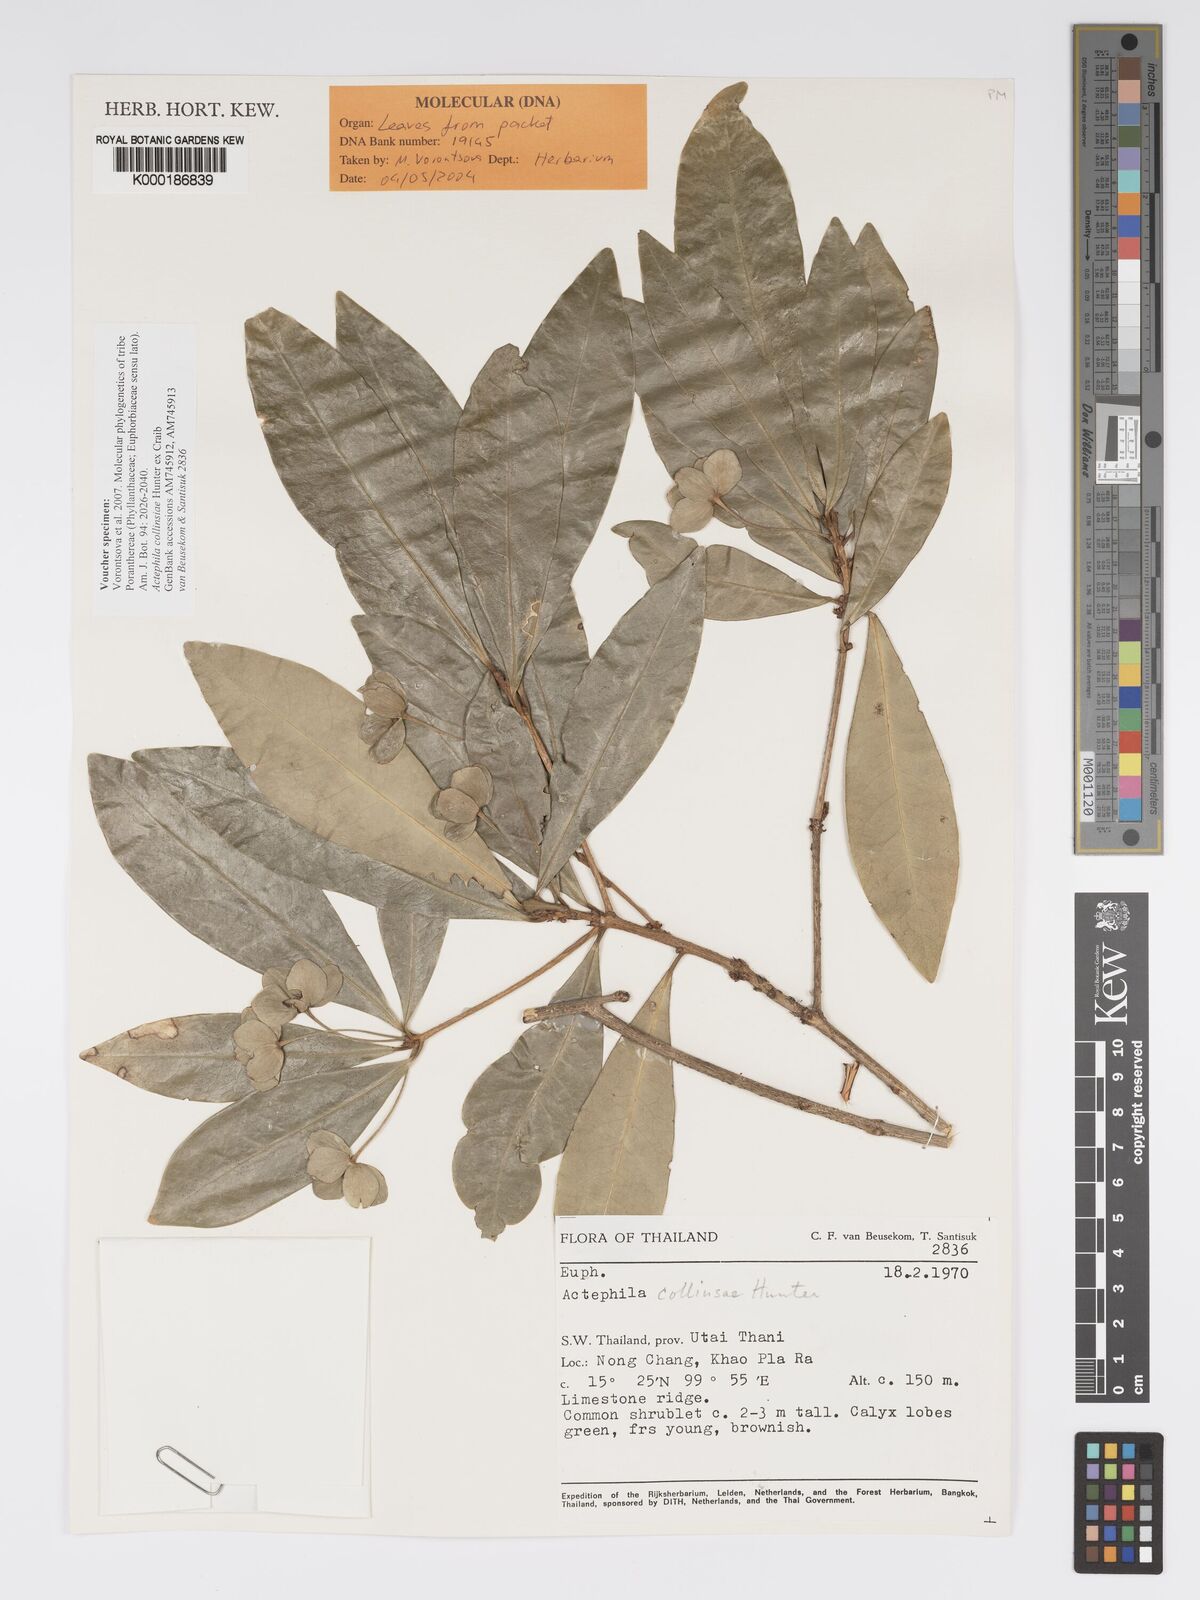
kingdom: Plantae
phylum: Tracheophyta
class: Magnoliopsida
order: Malpighiales
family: Phyllanthaceae
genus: Actephila
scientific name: Actephila collinsiae
